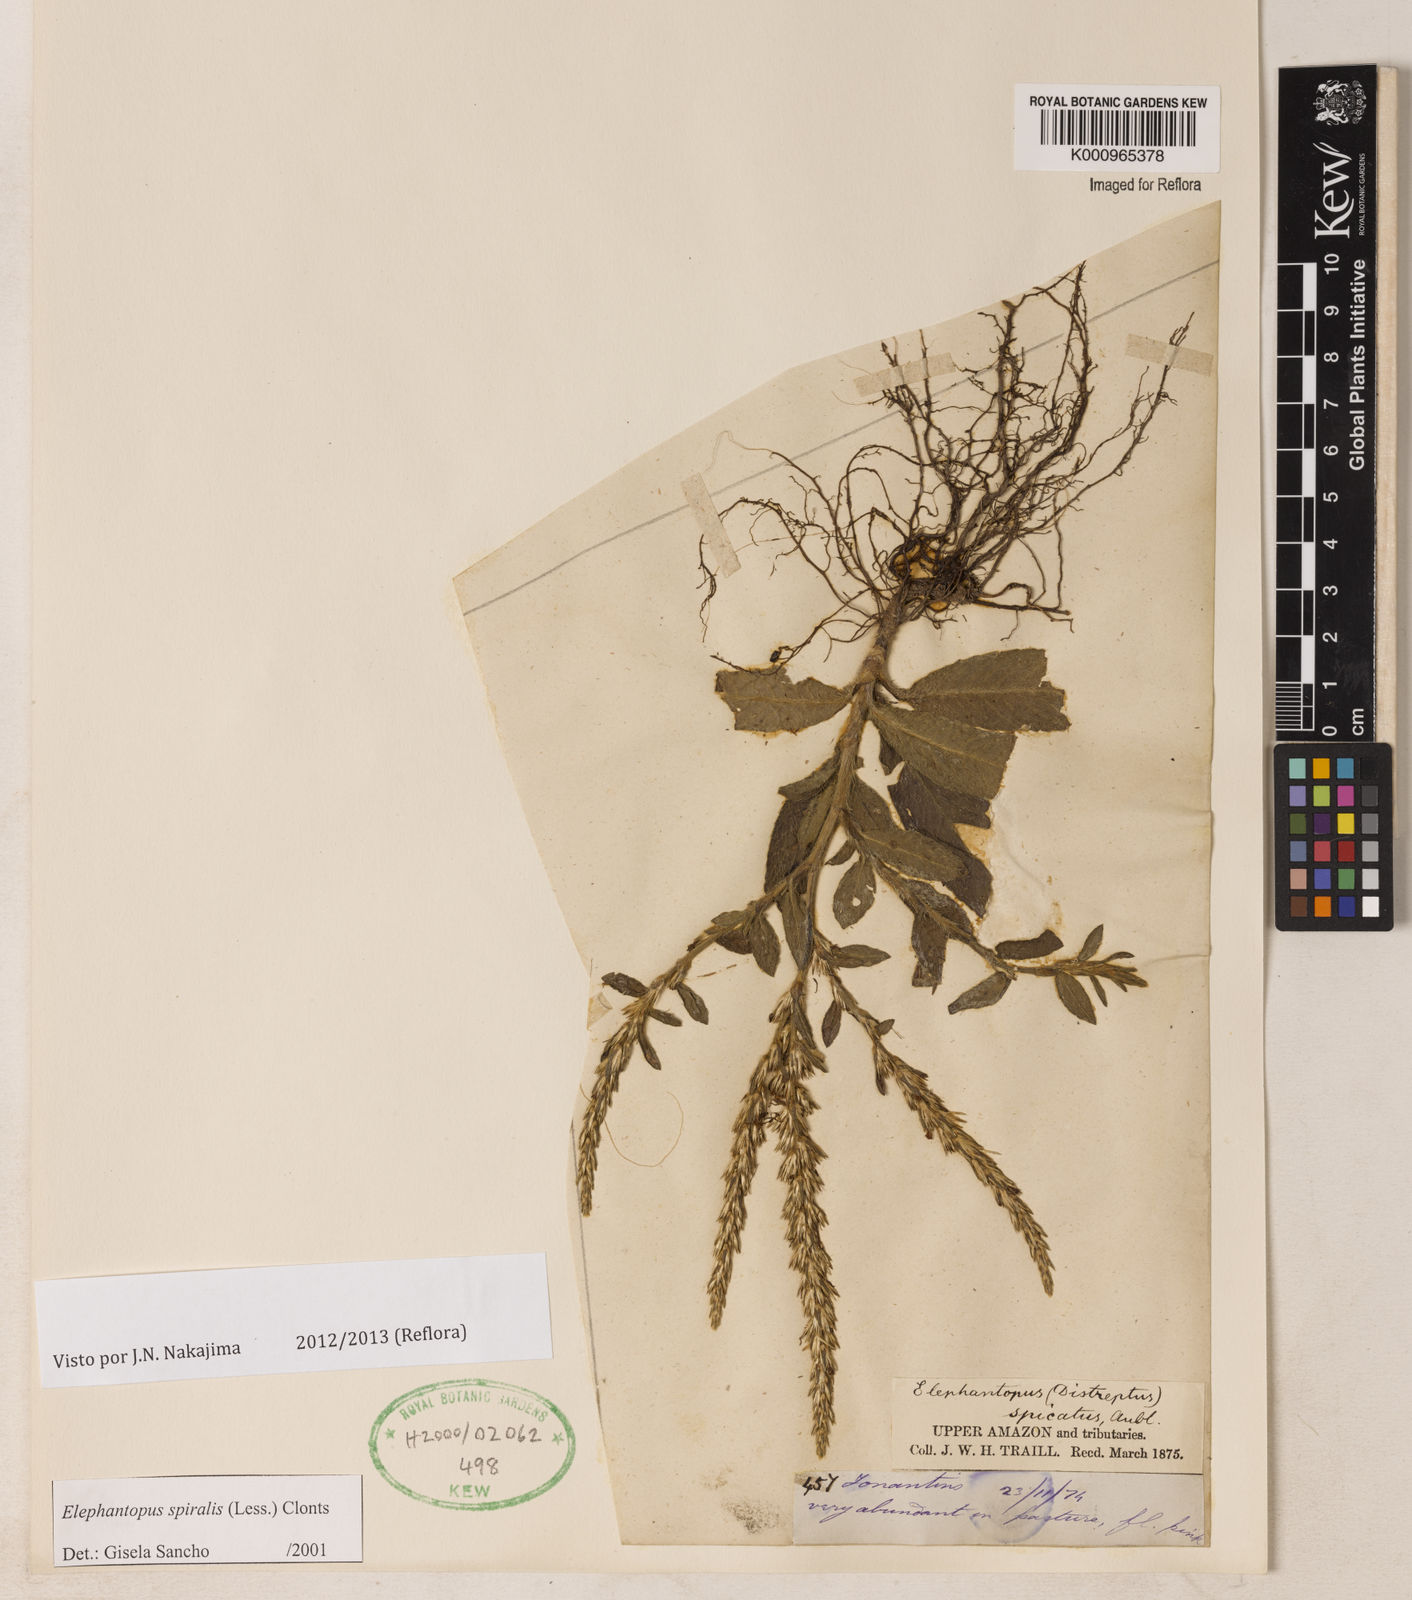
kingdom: Plantae
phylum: Tracheophyta
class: Magnoliopsida
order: Asterales
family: Asteraceae
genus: Pseudelephantopus
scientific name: Pseudelephantopus spiralis
